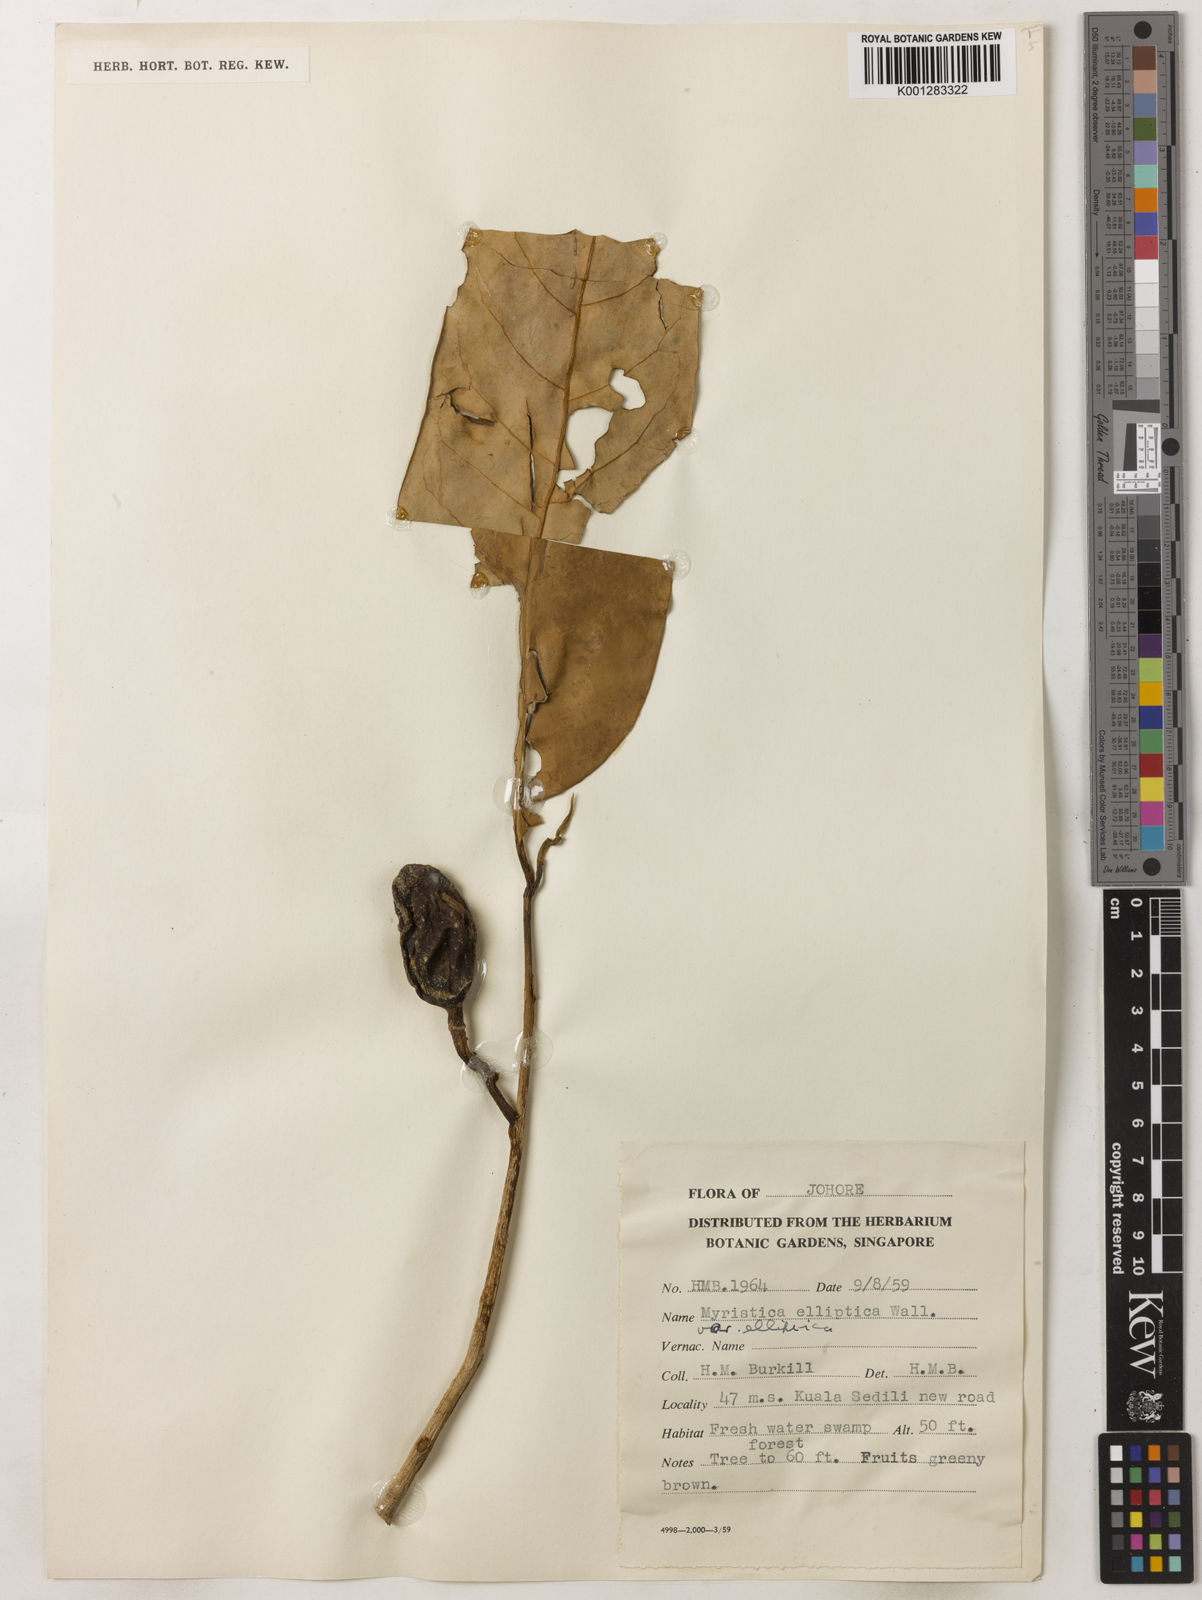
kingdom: Plantae
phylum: Tracheophyta
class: Magnoliopsida
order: Magnoliales
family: Myristicaceae
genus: Myristica
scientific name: Myristica elliptica
